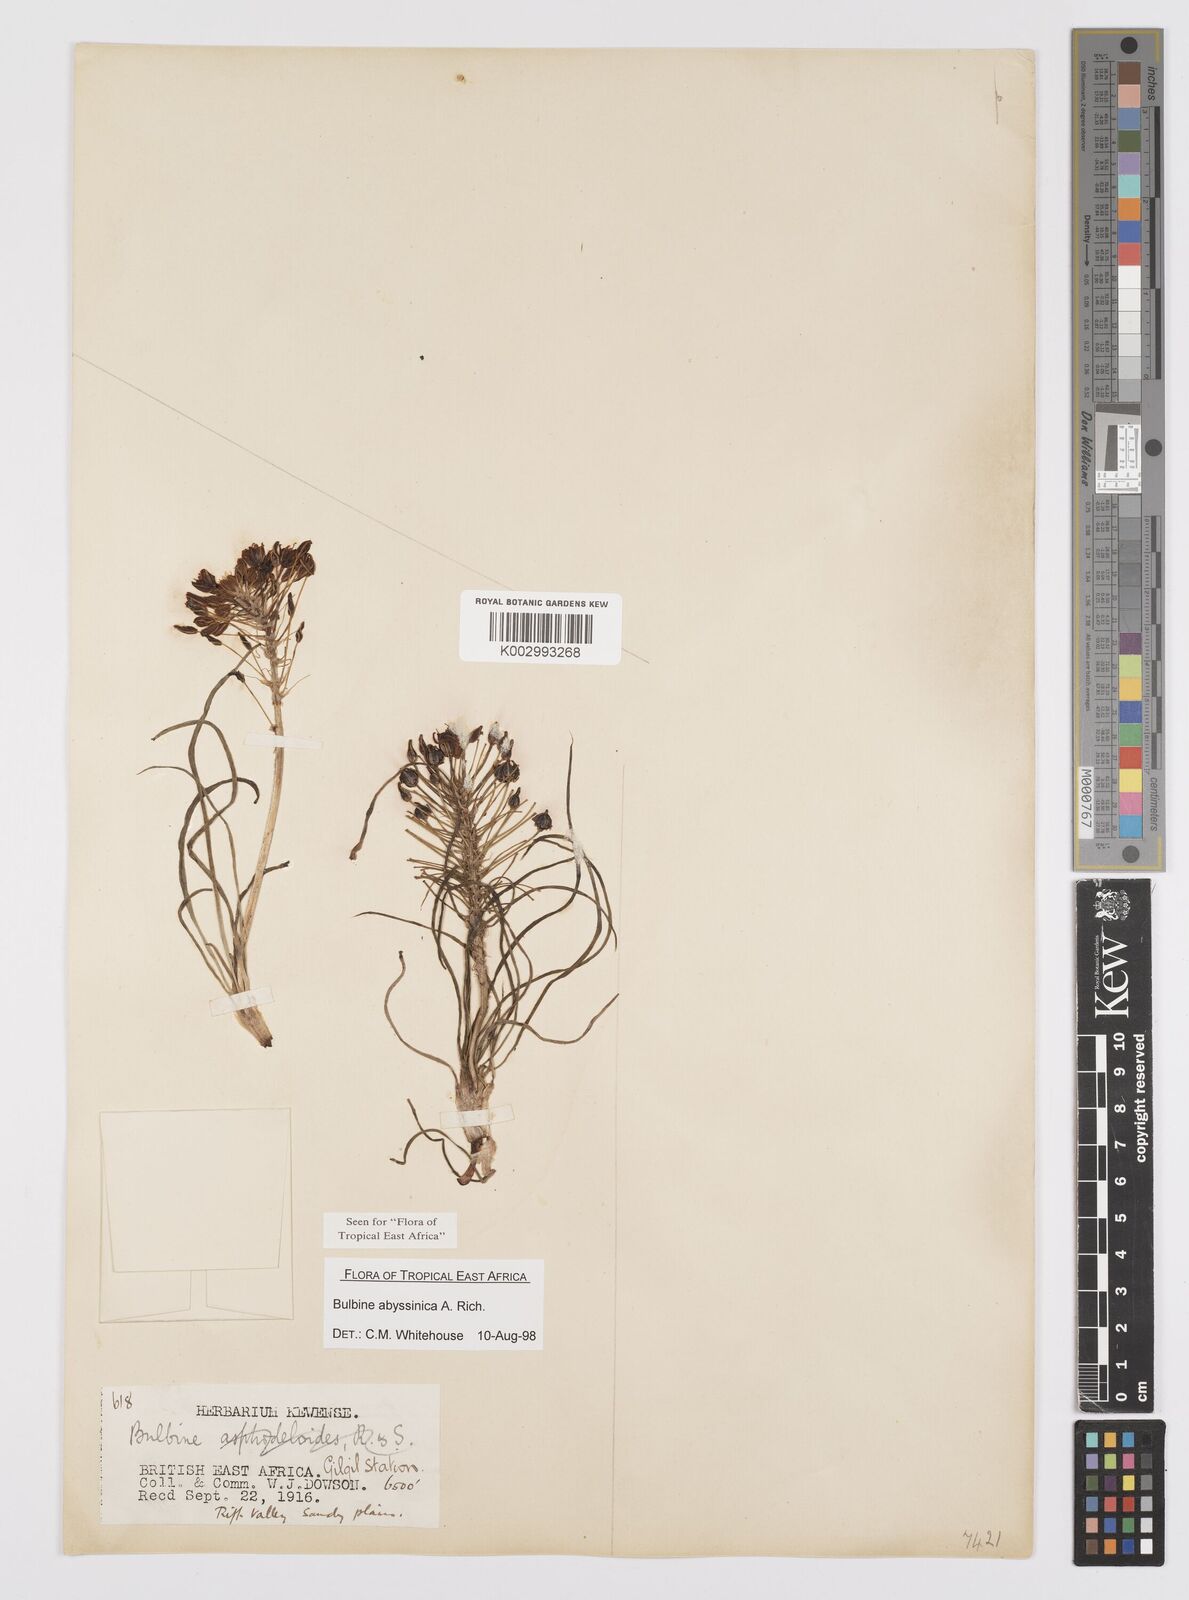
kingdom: Plantae
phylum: Tracheophyta
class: Liliopsida
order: Asparagales
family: Asphodelaceae
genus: Bulbine
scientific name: Bulbine abyssinica
